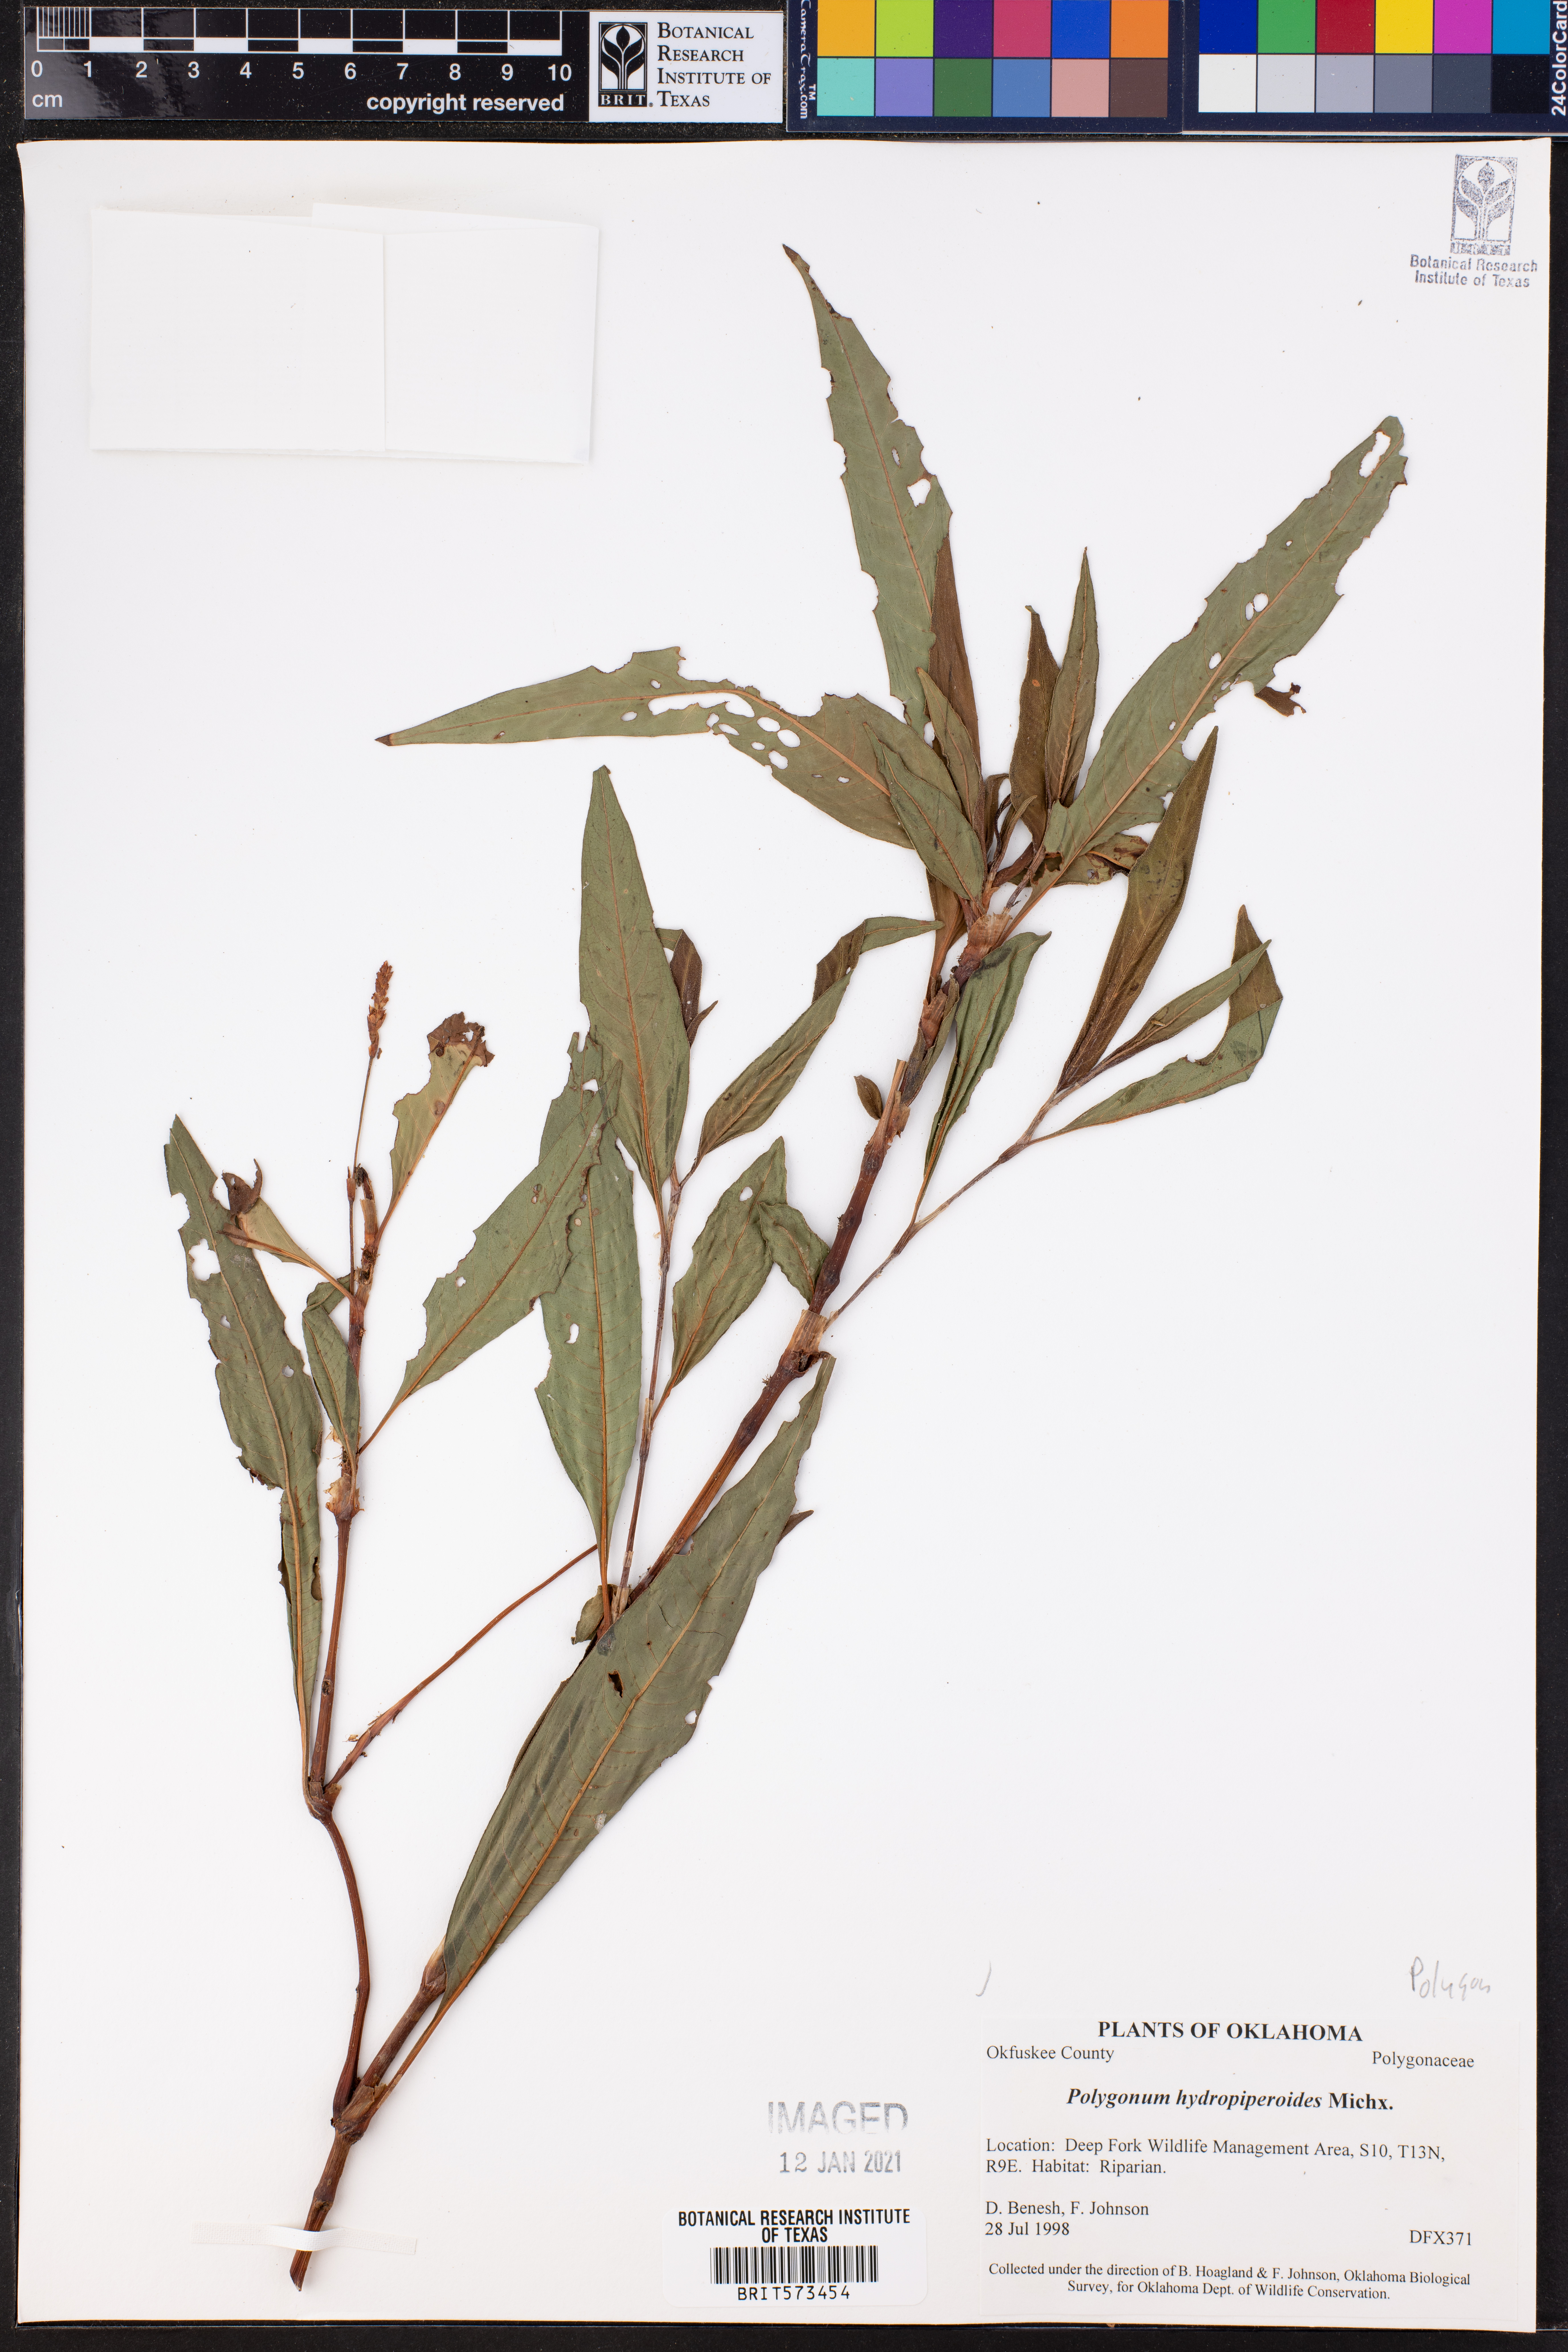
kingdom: Plantae
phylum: Tracheophyta
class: Magnoliopsida
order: Caryophyllales
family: Polygonaceae
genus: Persicaria
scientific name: Persicaria hydropiperoides
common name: Swamp smartweed
